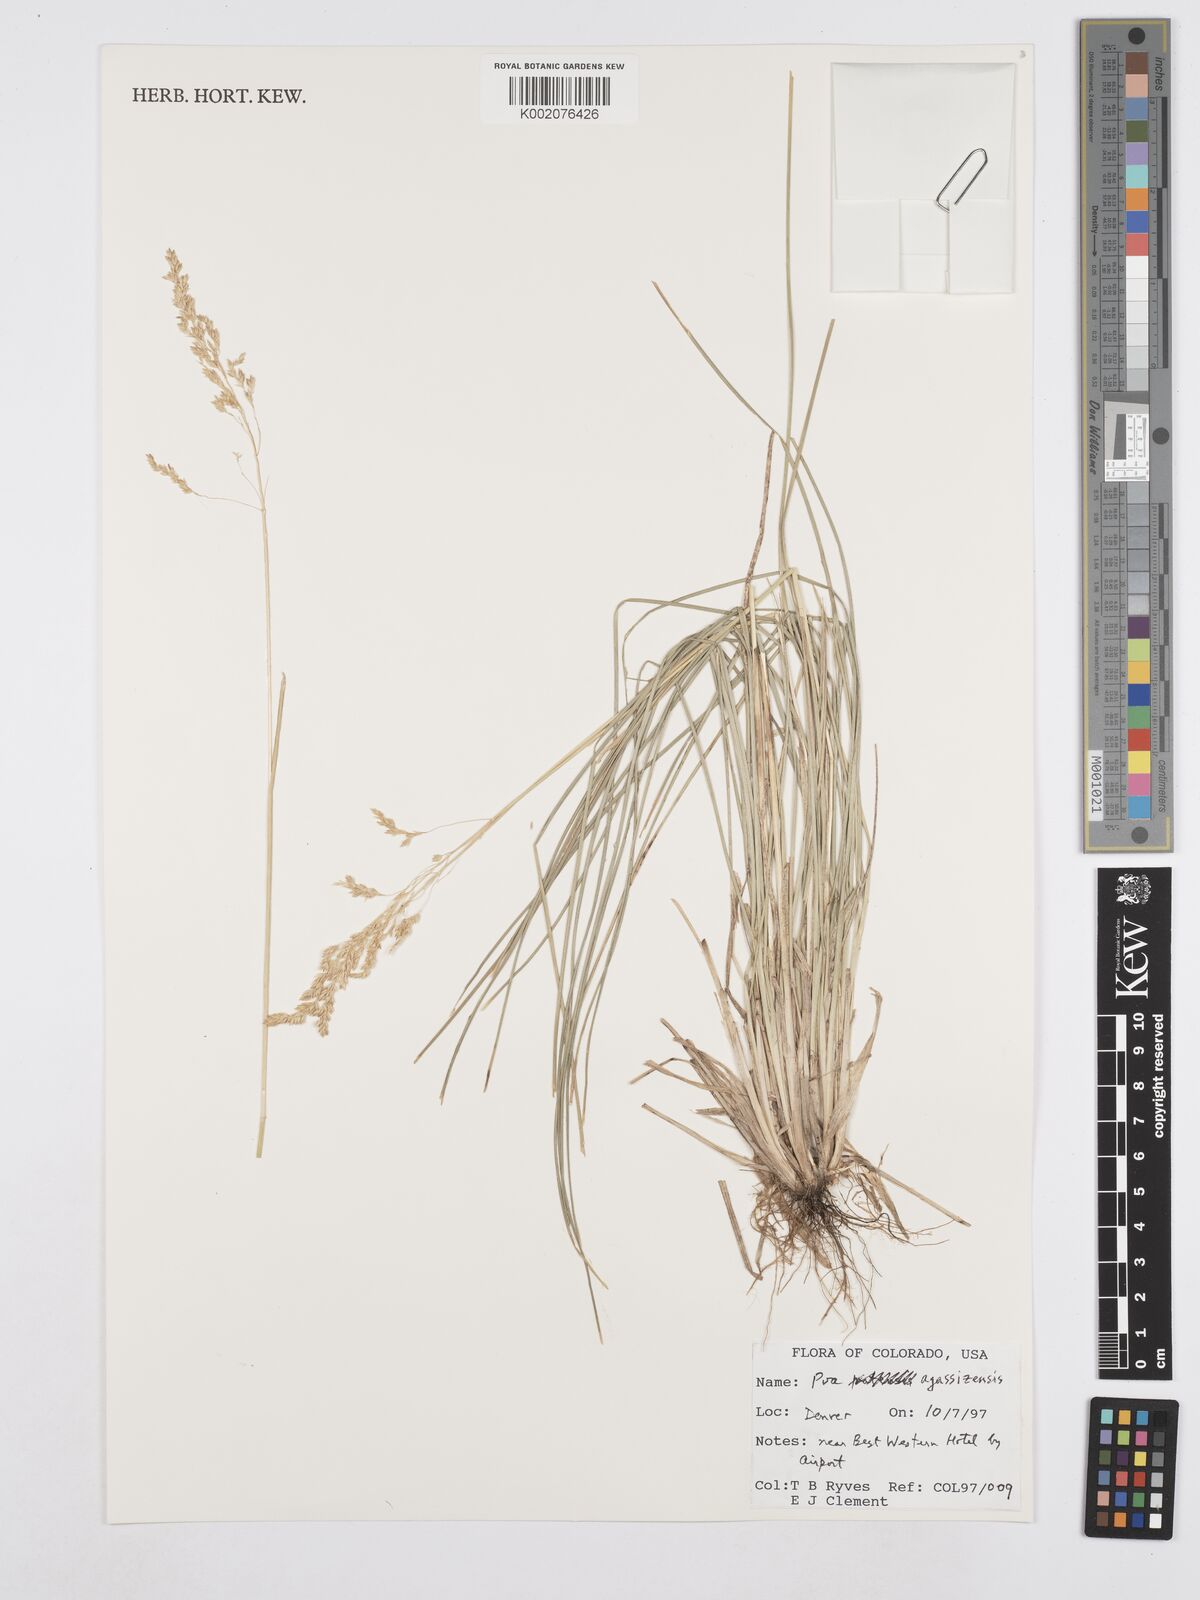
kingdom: Plantae
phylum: Tracheophyta
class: Liliopsida
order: Poales
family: Poaceae
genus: Poa
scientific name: Poa pratensis
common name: Kentucky bluegrass
